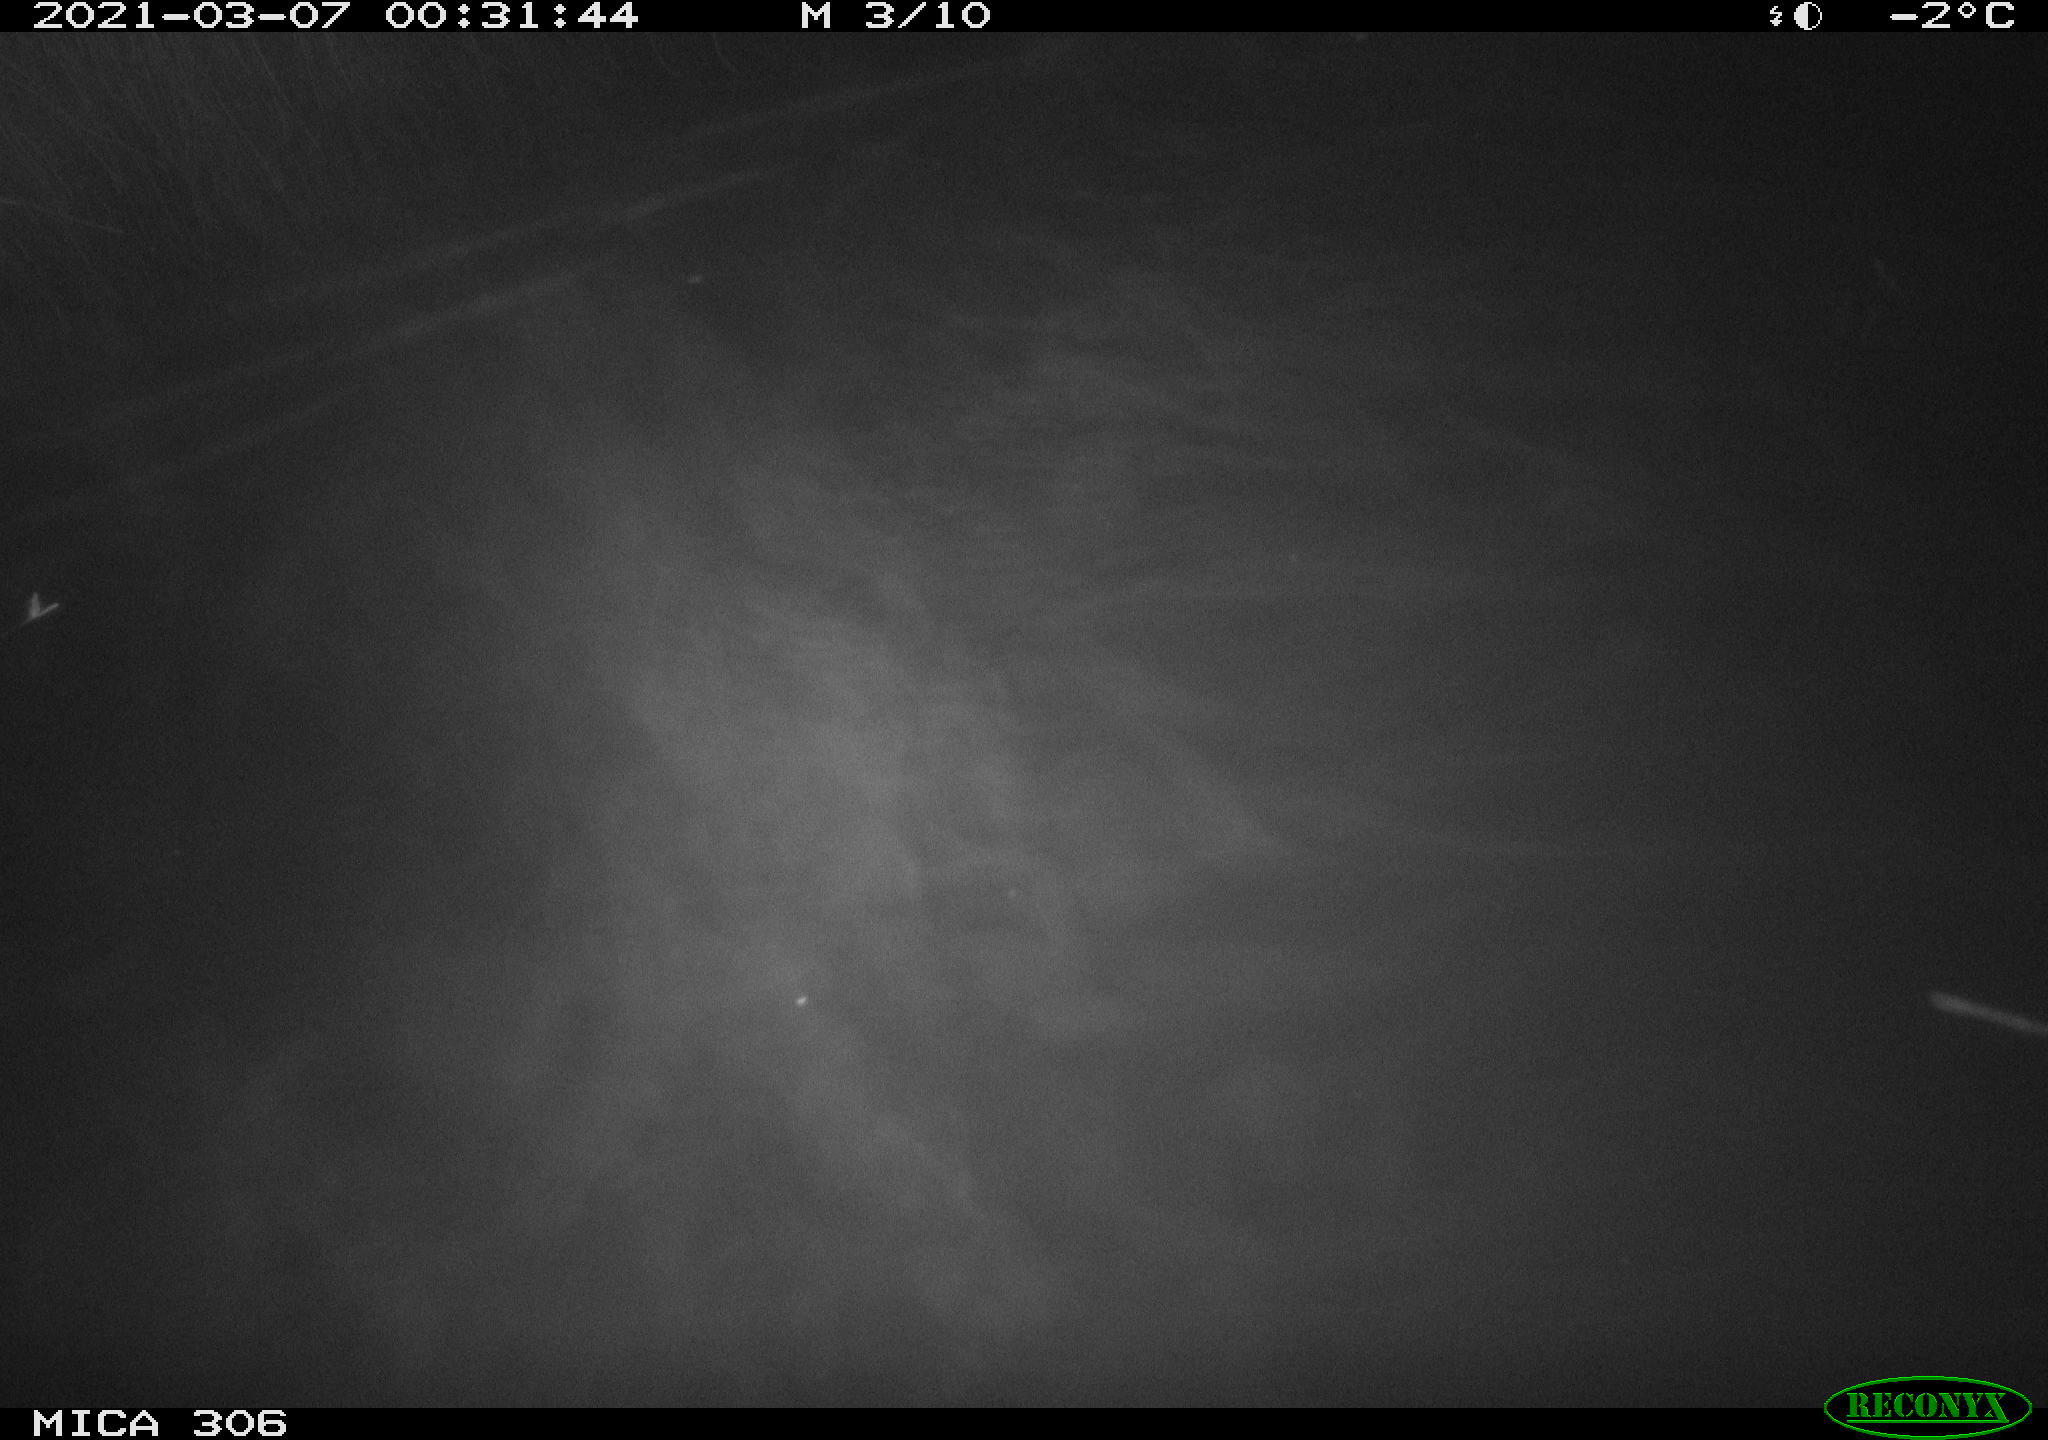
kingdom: Animalia
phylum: Chordata
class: Mammalia
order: Rodentia
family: Cricetidae
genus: Ondatra
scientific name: Ondatra zibethicus
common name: Muskrat
